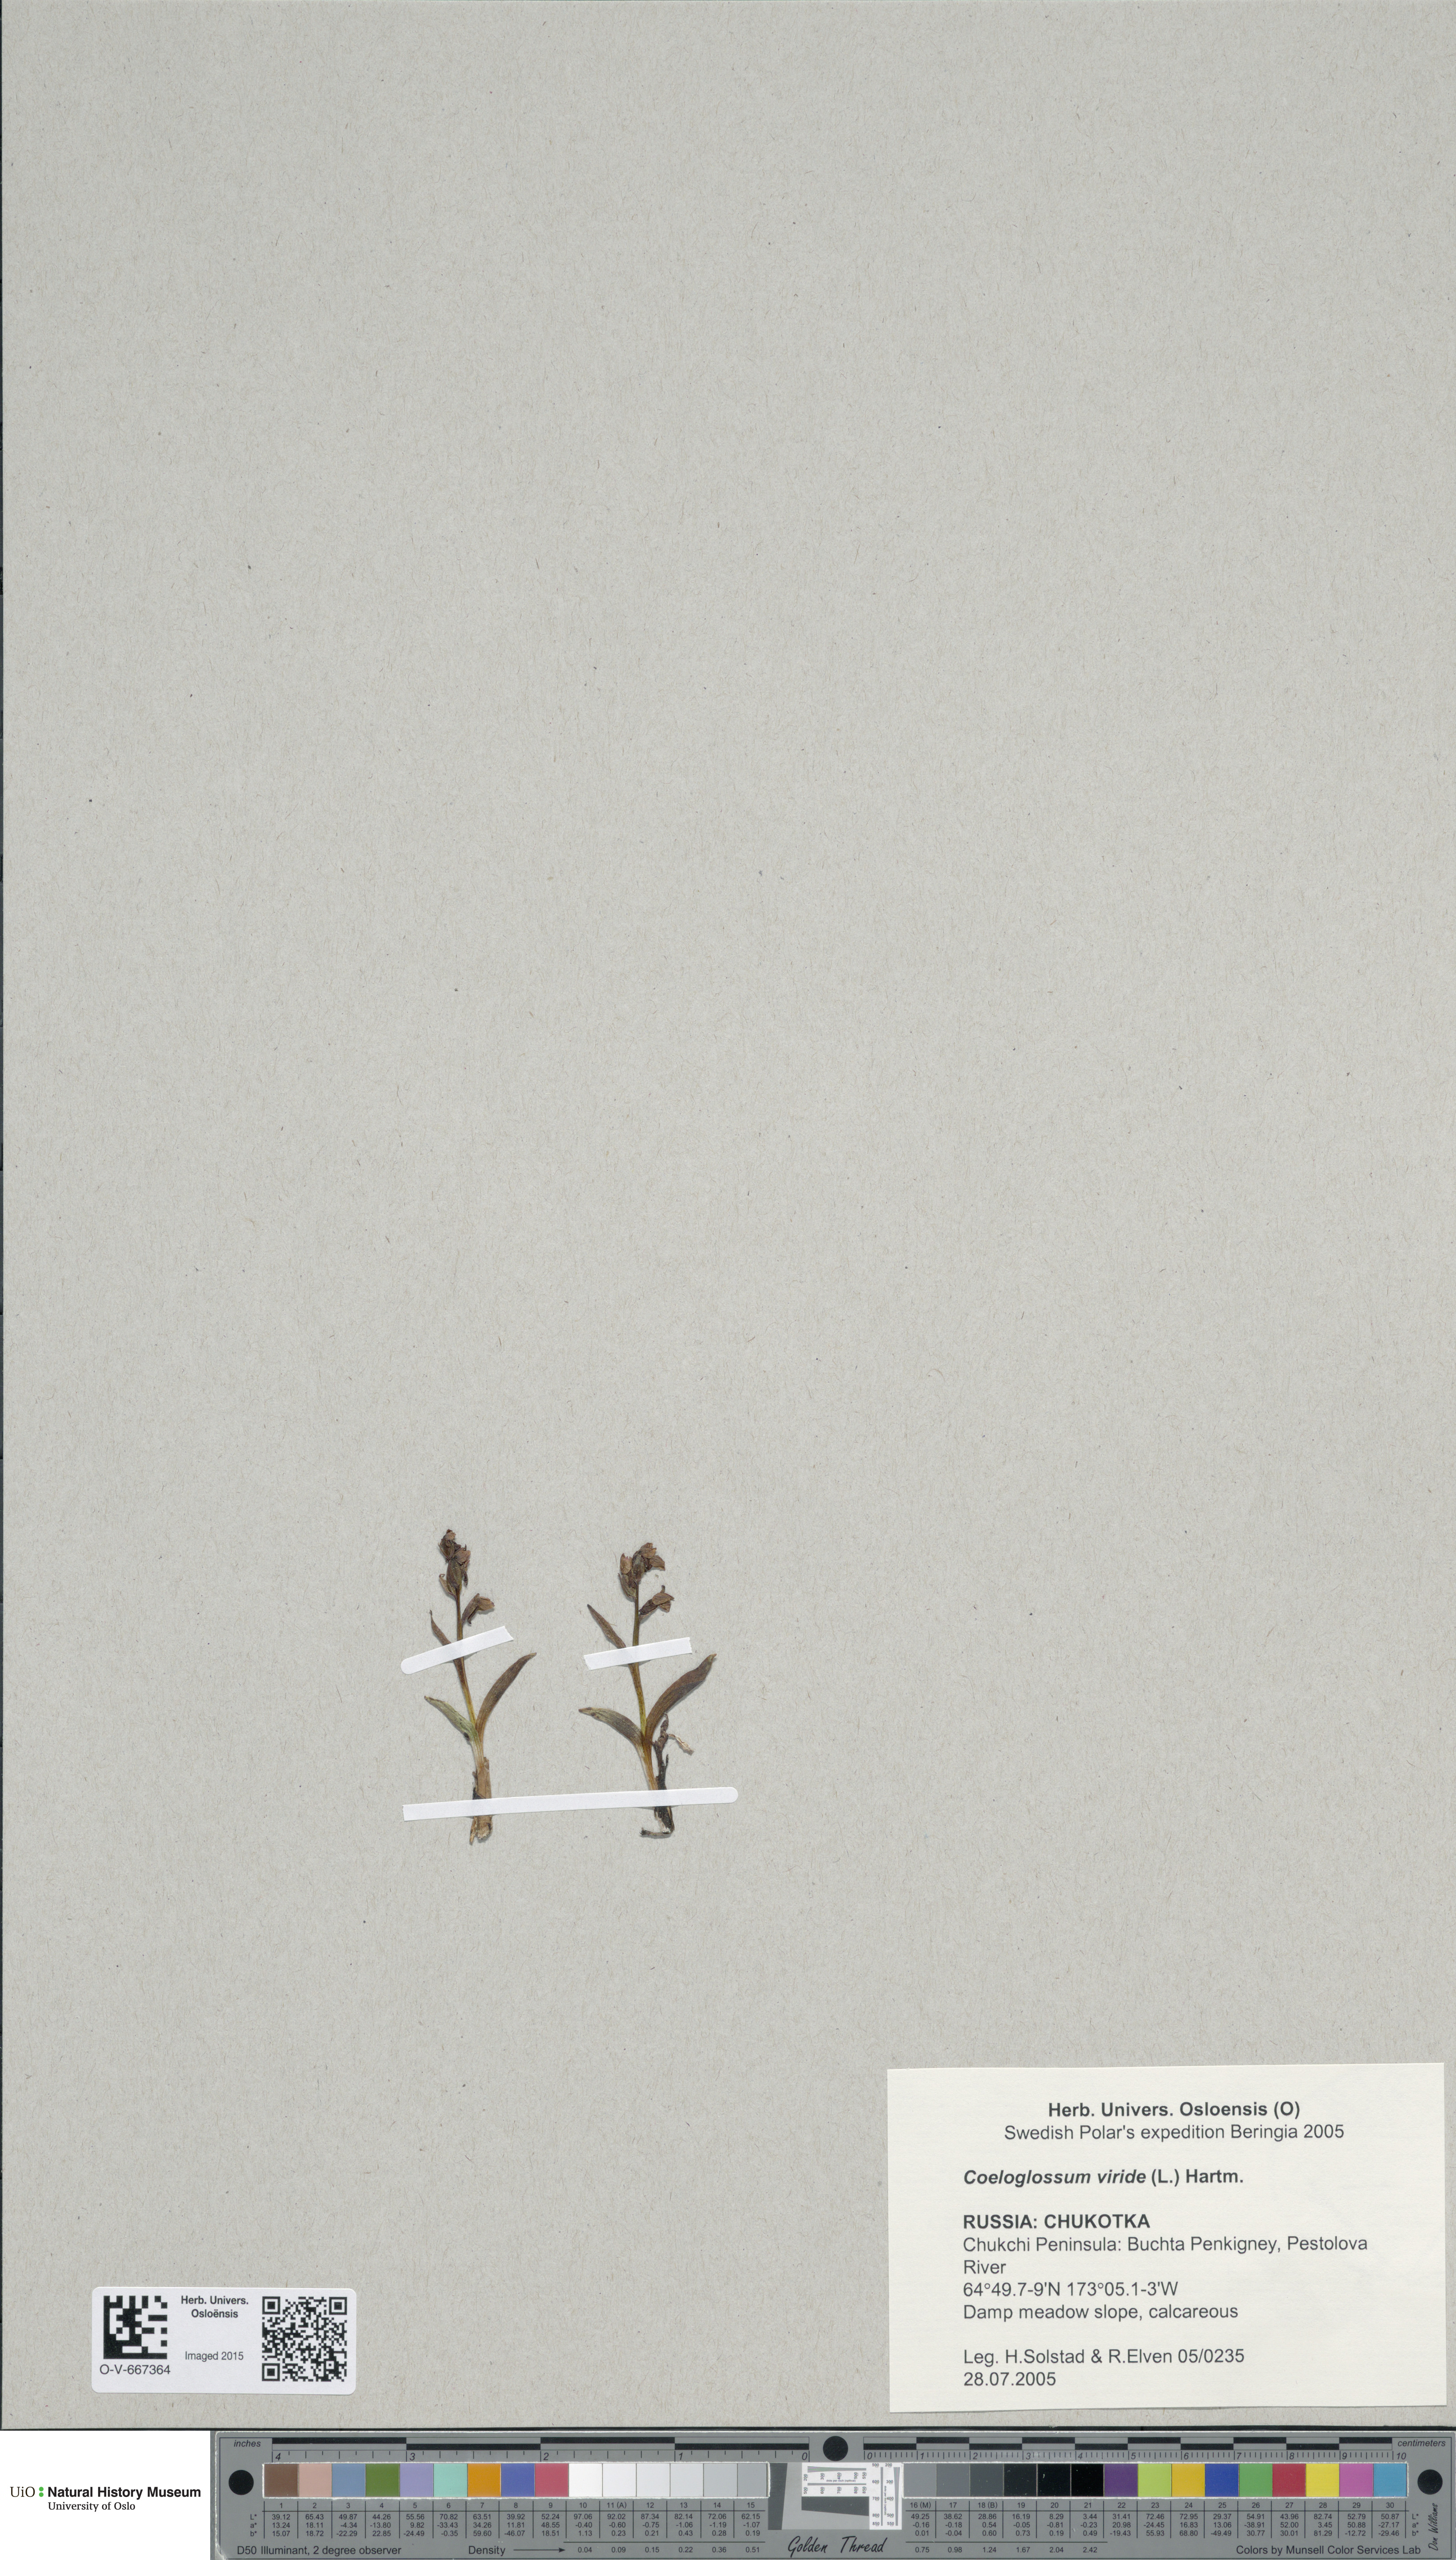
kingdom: Plantae
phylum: Tracheophyta
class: Liliopsida
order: Asparagales
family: Orchidaceae
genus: Dactylorhiza
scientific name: Dactylorhiza viridis
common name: Longbract frog orchid
